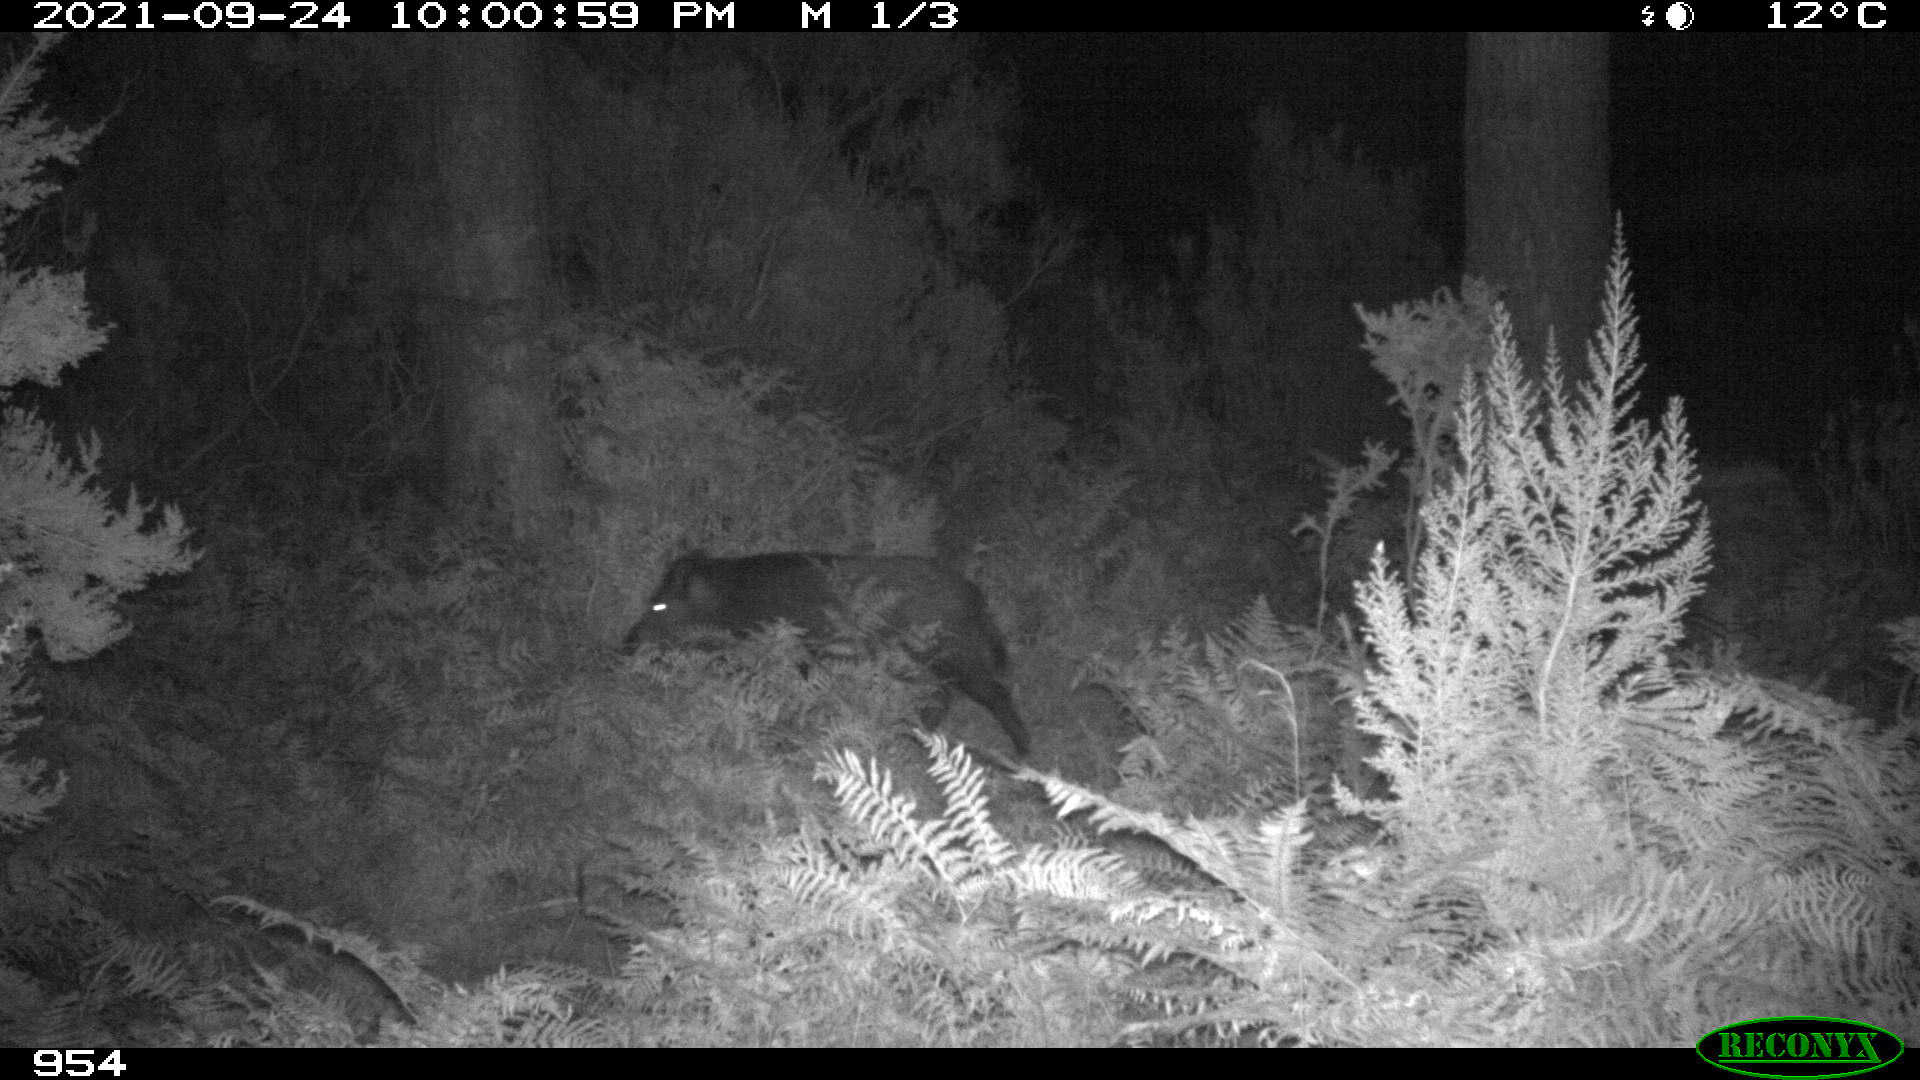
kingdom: Animalia
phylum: Chordata
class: Mammalia
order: Artiodactyla
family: Suidae
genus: Sus
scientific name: Sus scrofa
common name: Wild boar
